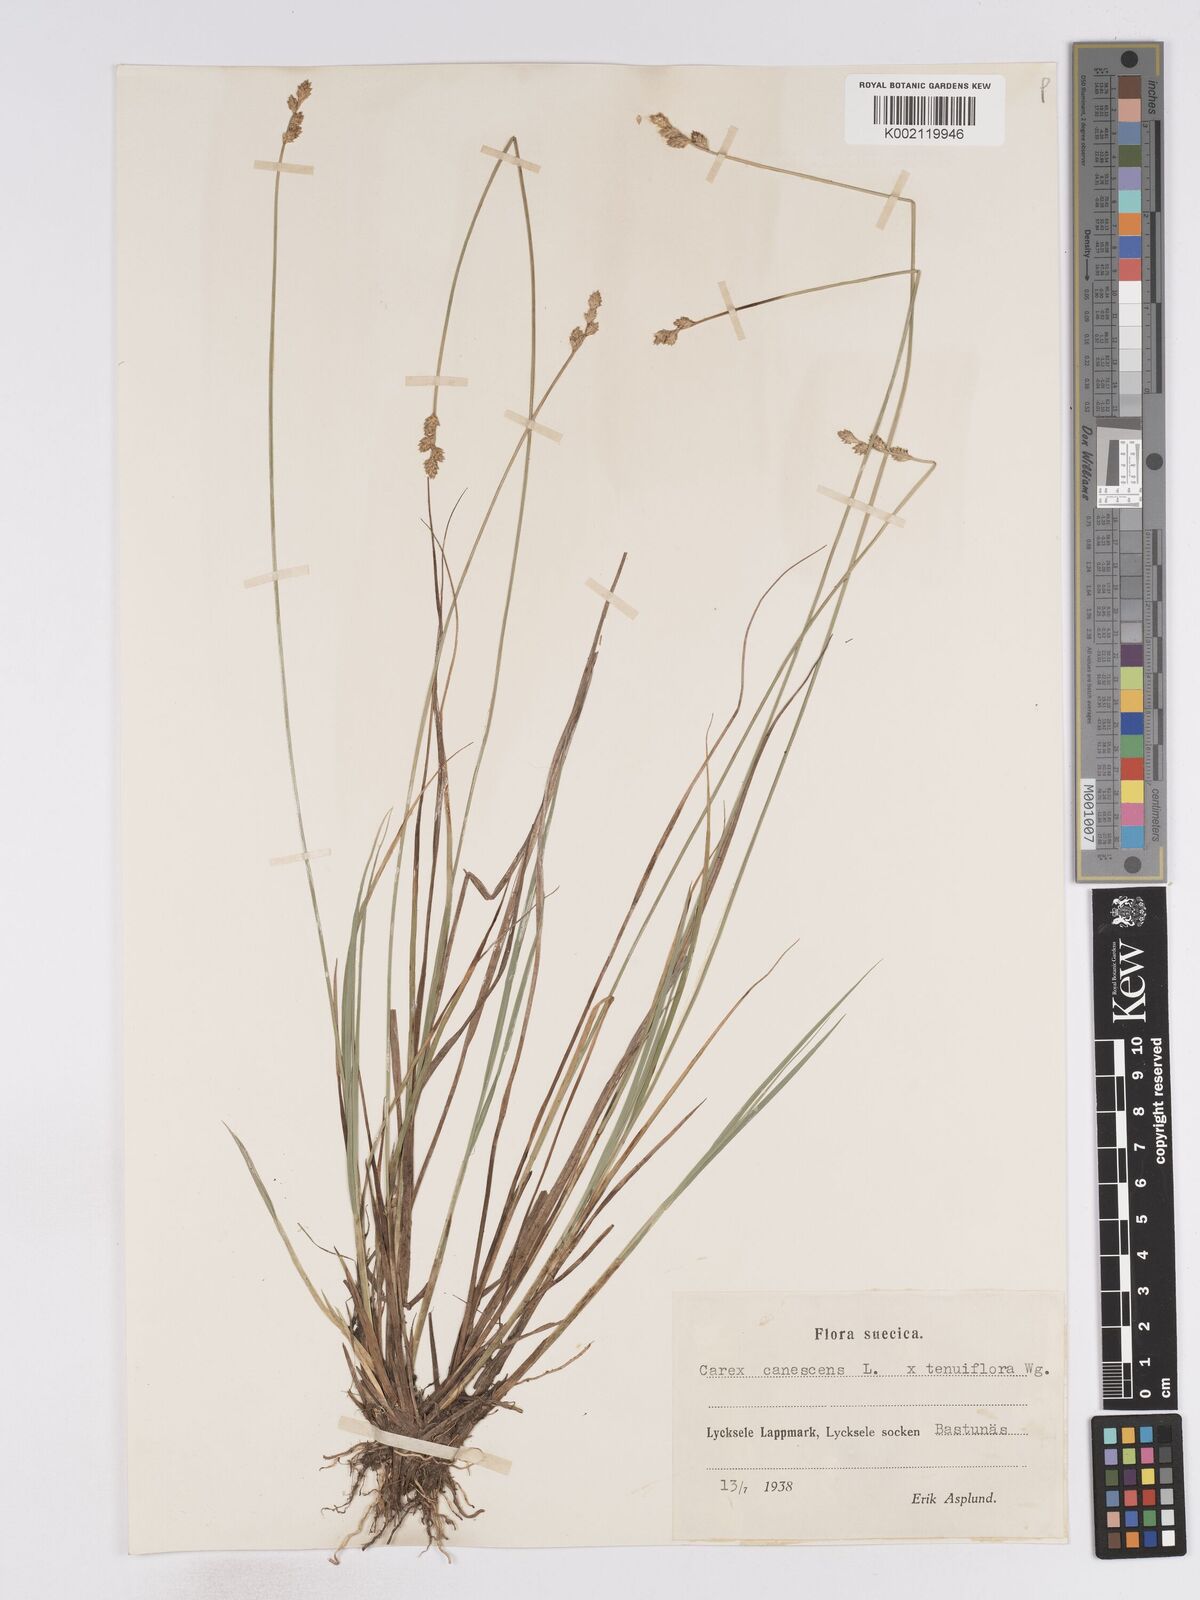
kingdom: Plantae
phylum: Tracheophyta
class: Liliopsida
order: Poales
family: Cyperaceae
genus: Carex
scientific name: Carex curta
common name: White sedge
